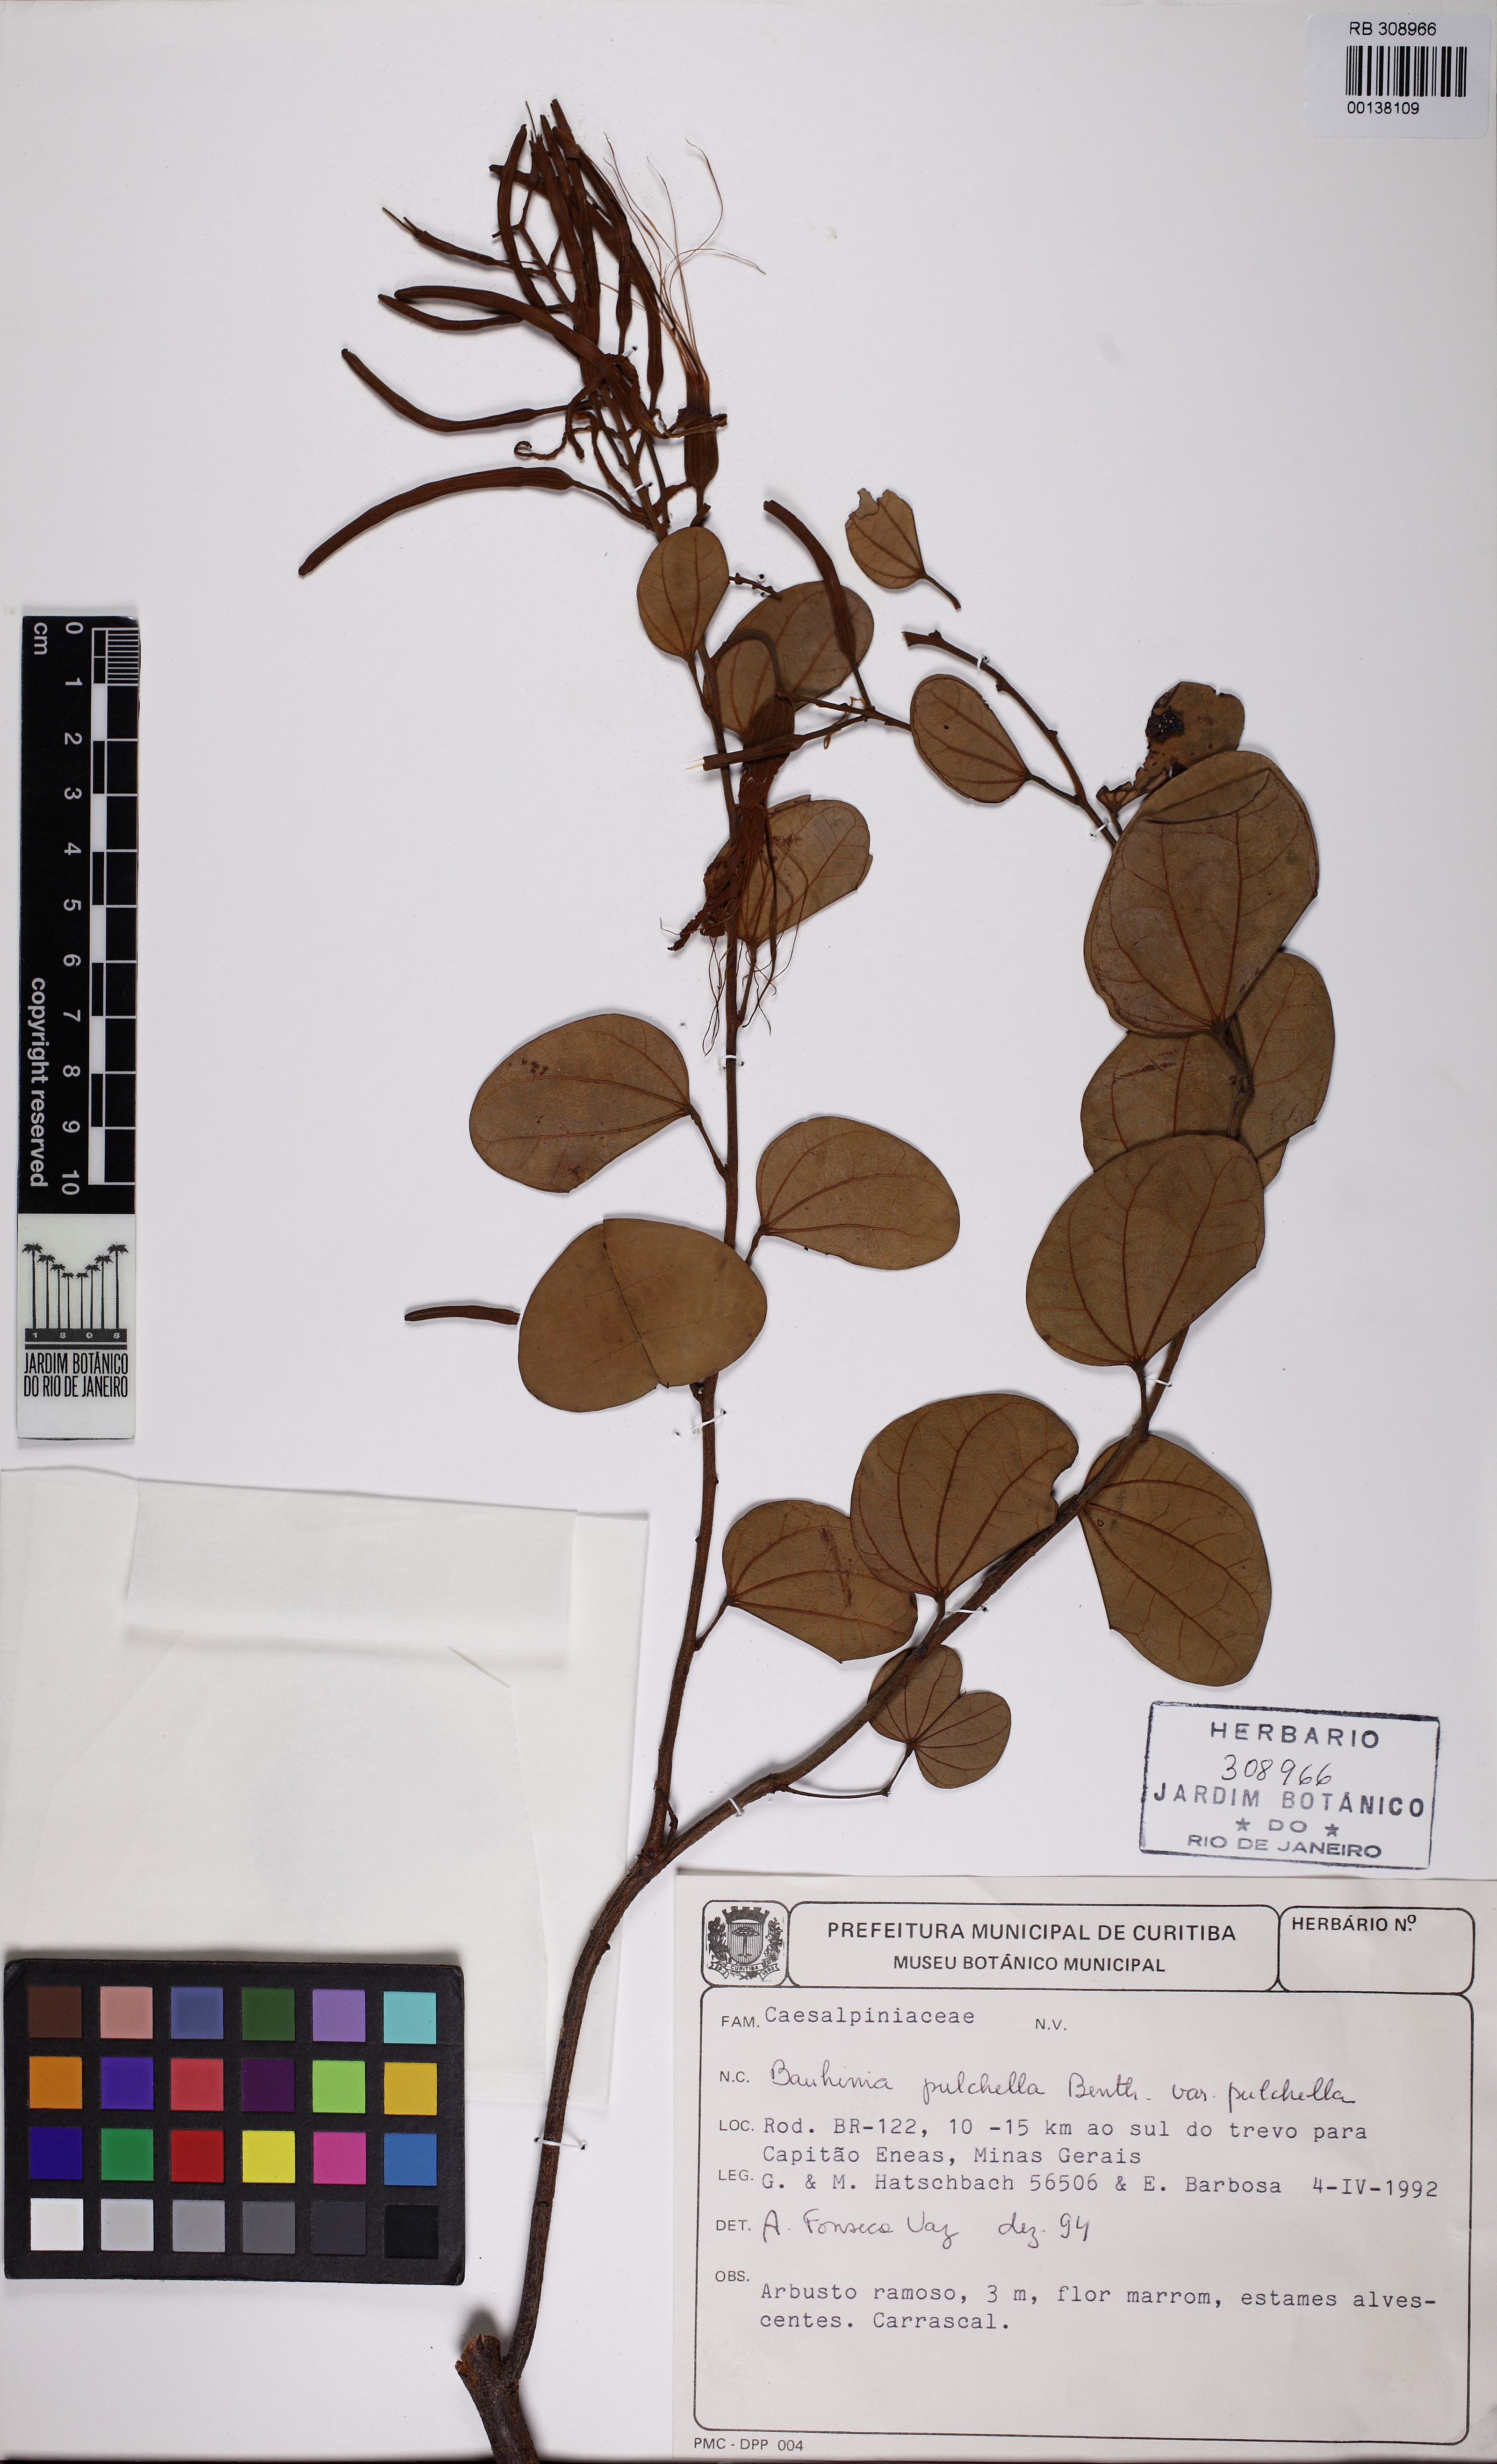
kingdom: Plantae
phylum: Tracheophyta
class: Magnoliopsida
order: Fabales
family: Fabaceae
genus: Bauhinia
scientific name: Bauhinia pulchella
